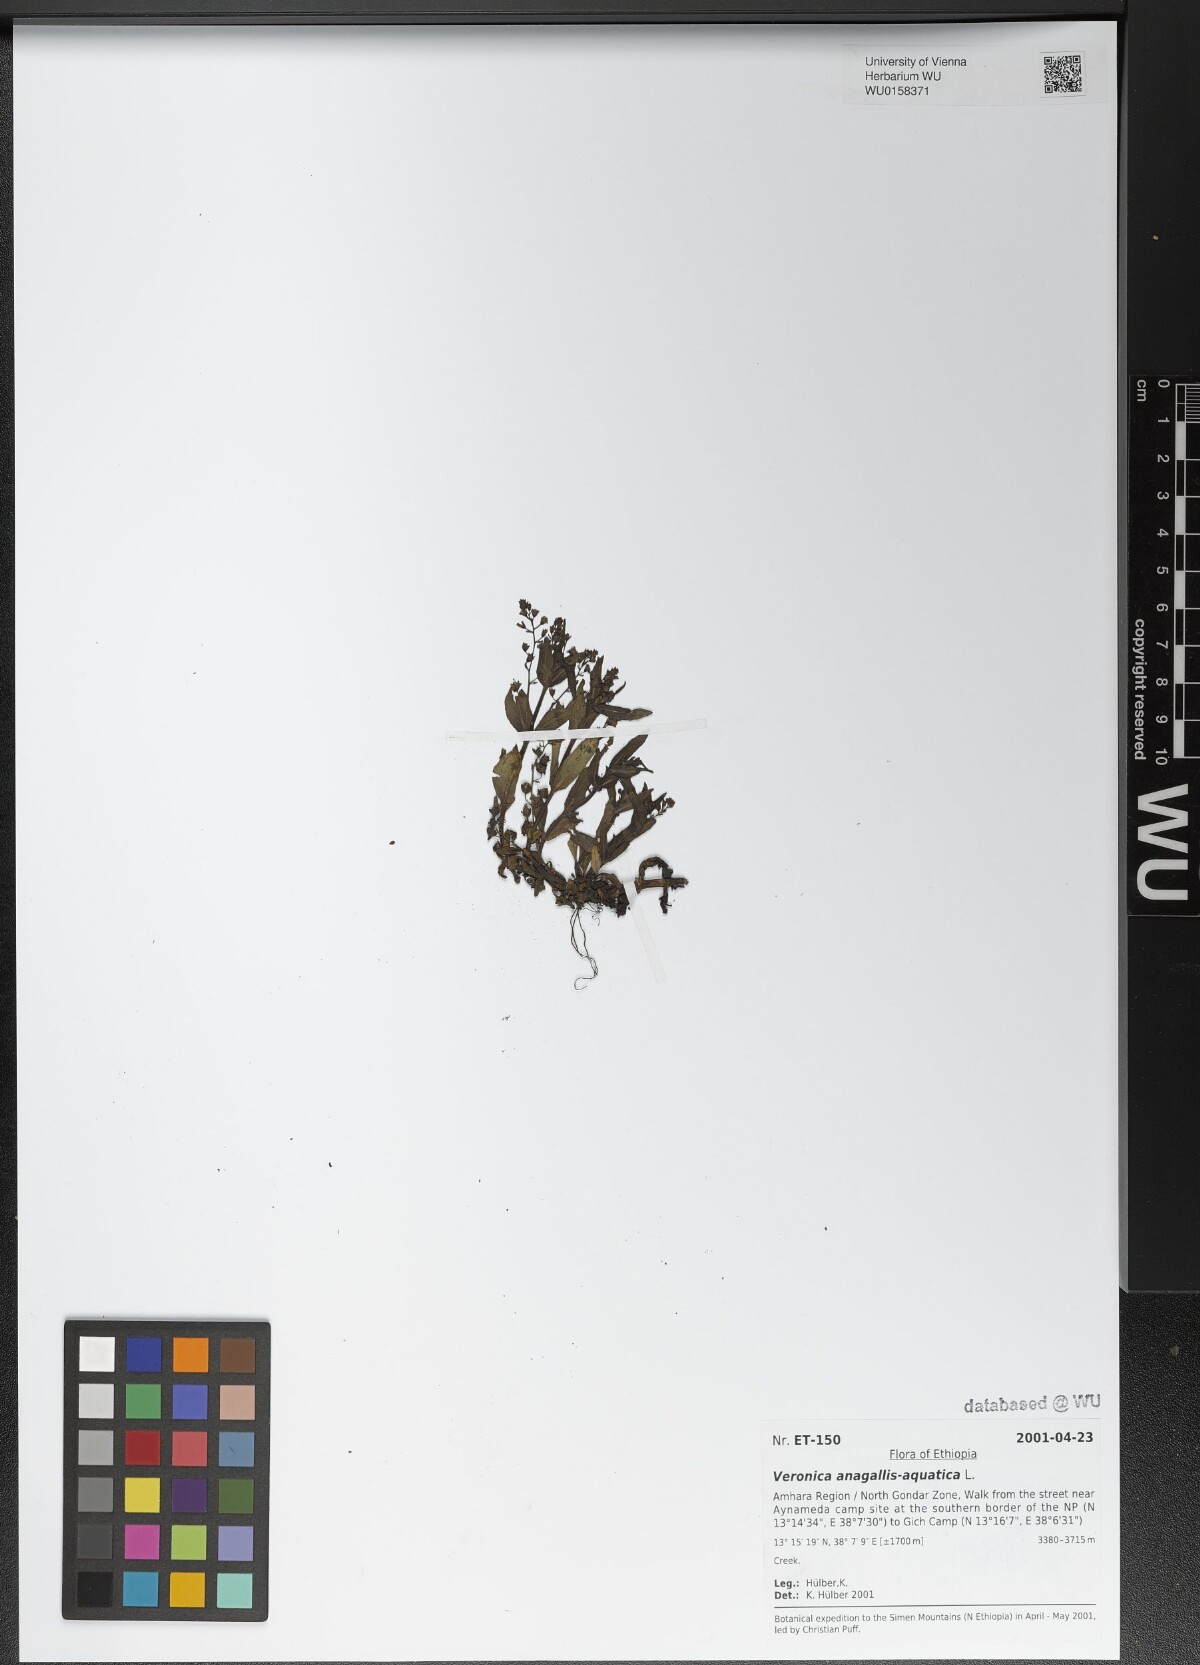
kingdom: Plantae
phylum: Tracheophyta
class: Magnoliopsida
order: Lamiales
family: Plantaginaceae
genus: Veronica
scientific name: Veronica anagallis-aquatica
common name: Water speedwell
